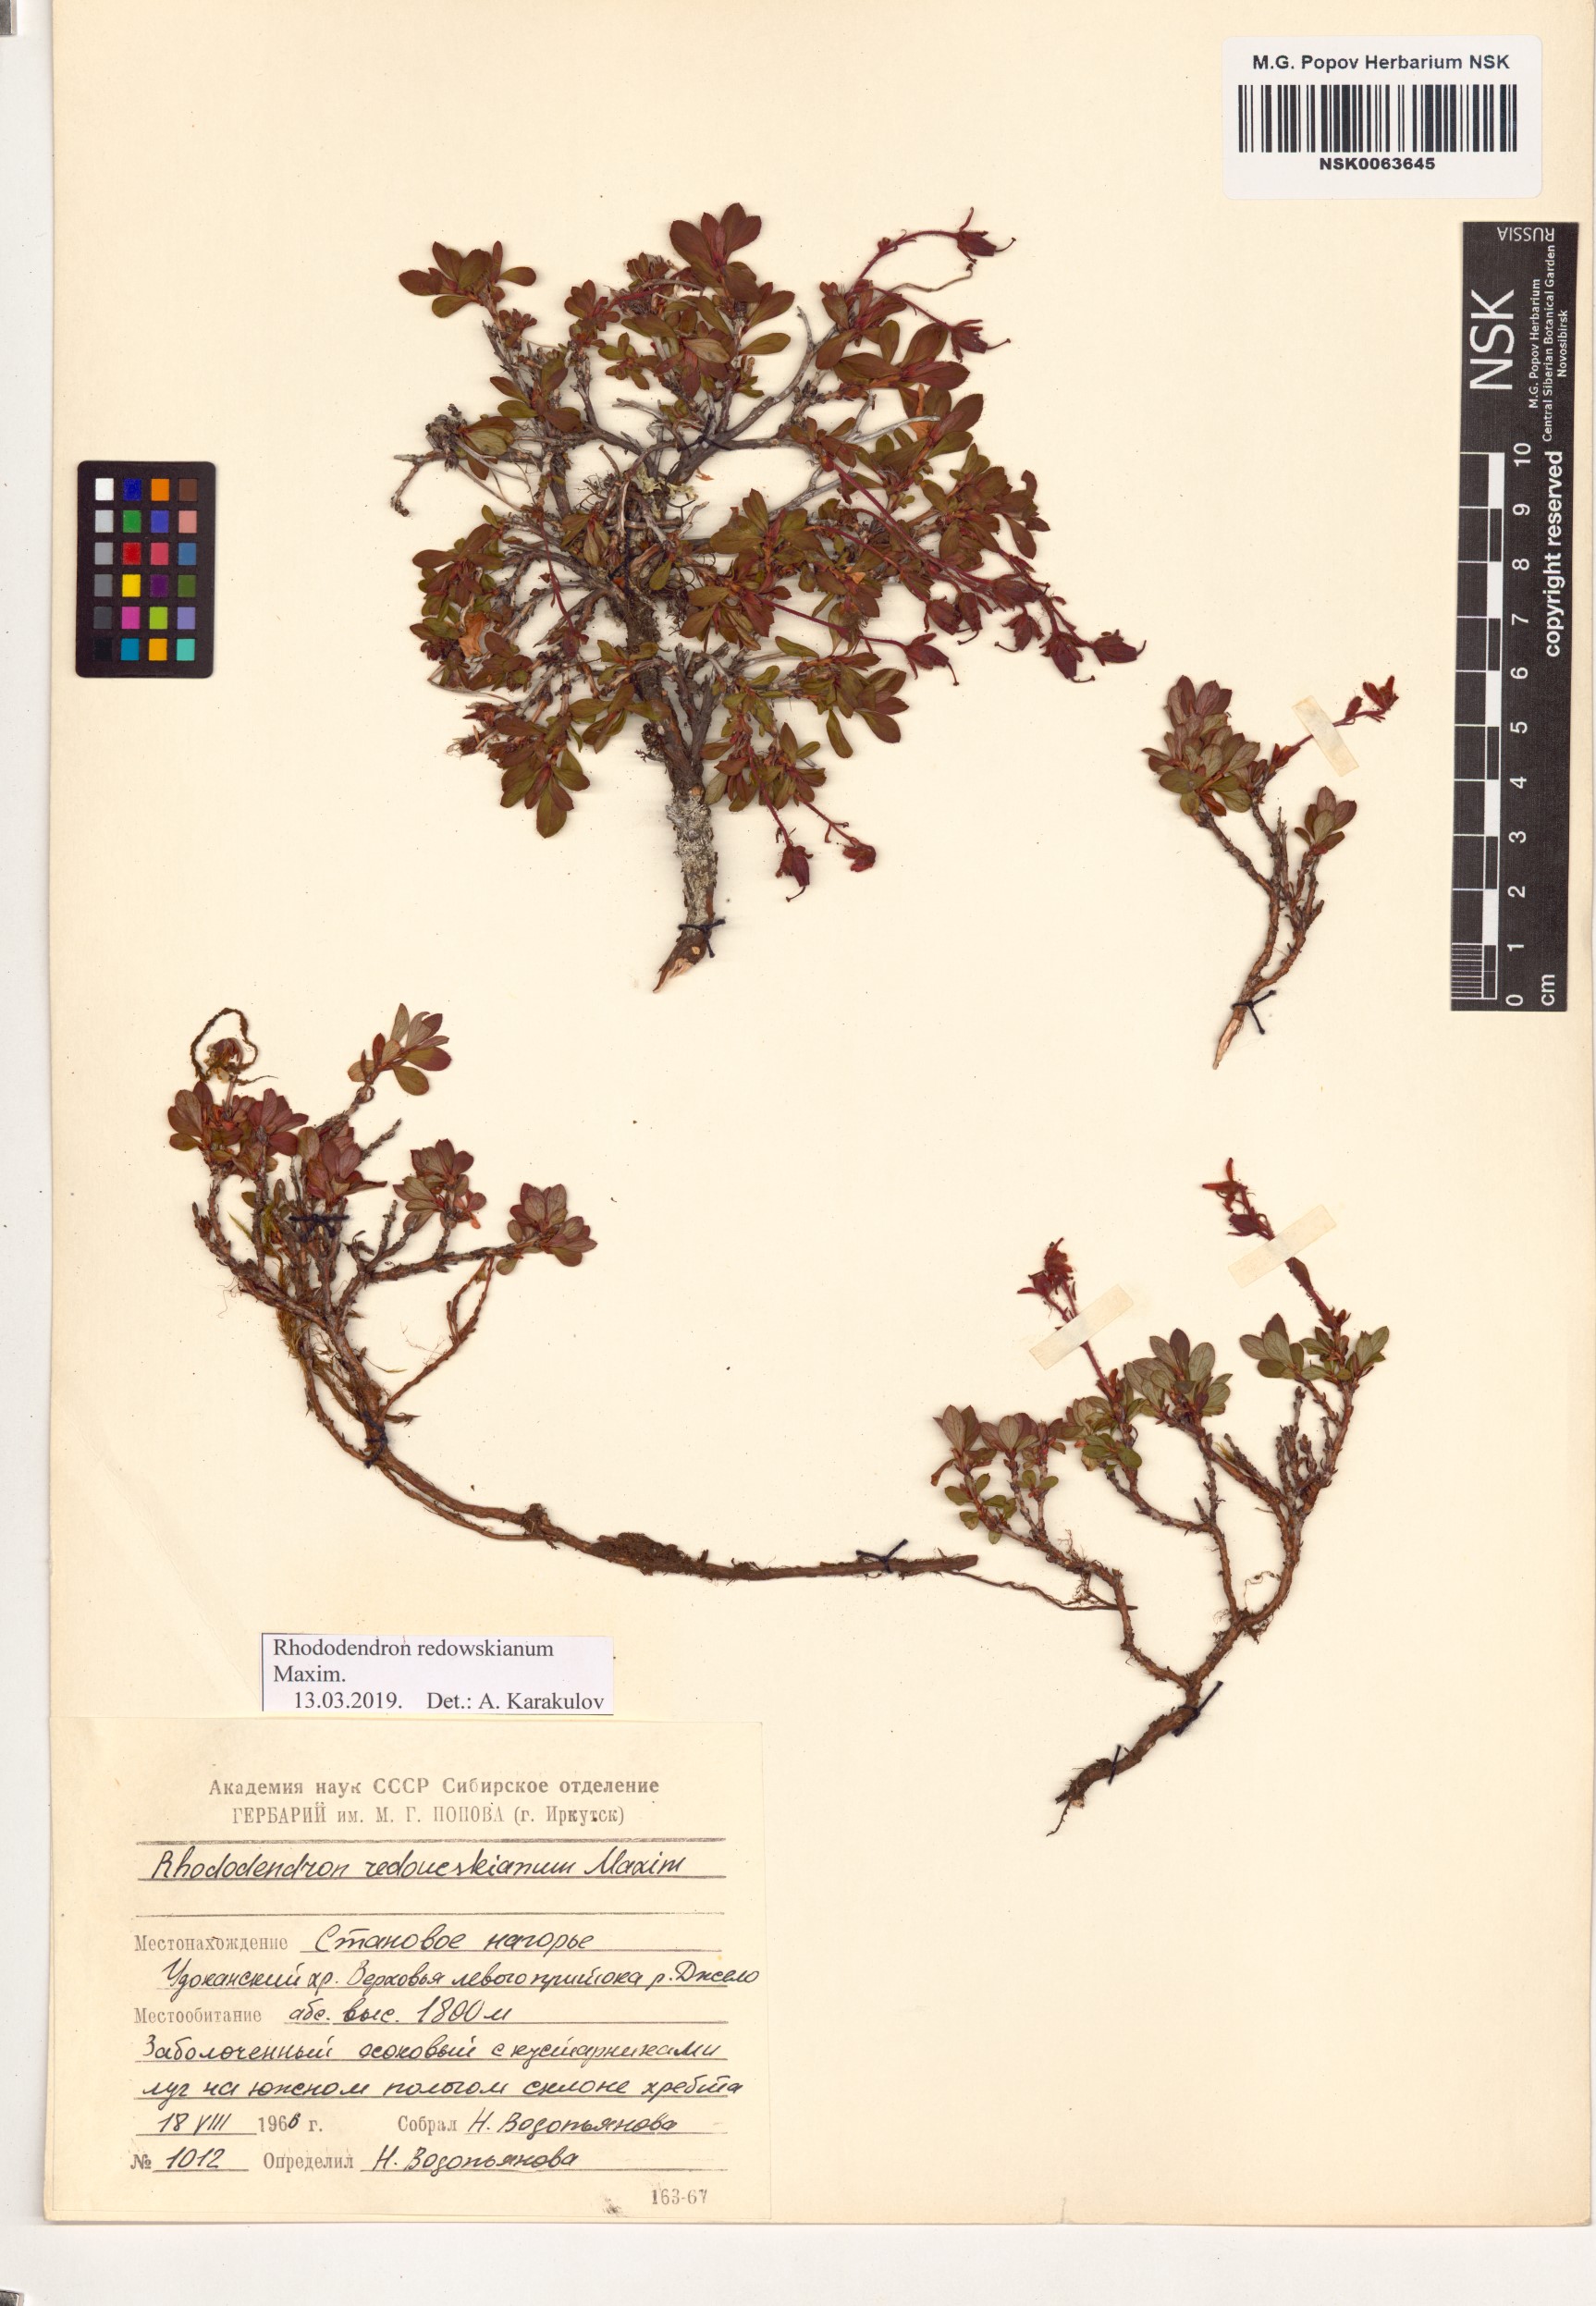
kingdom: Plantae
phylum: Tracheophyta
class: Magnoliopsida
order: Ericales
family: Ericaceae
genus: Rhododendron
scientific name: Rhododendron redowskianum
